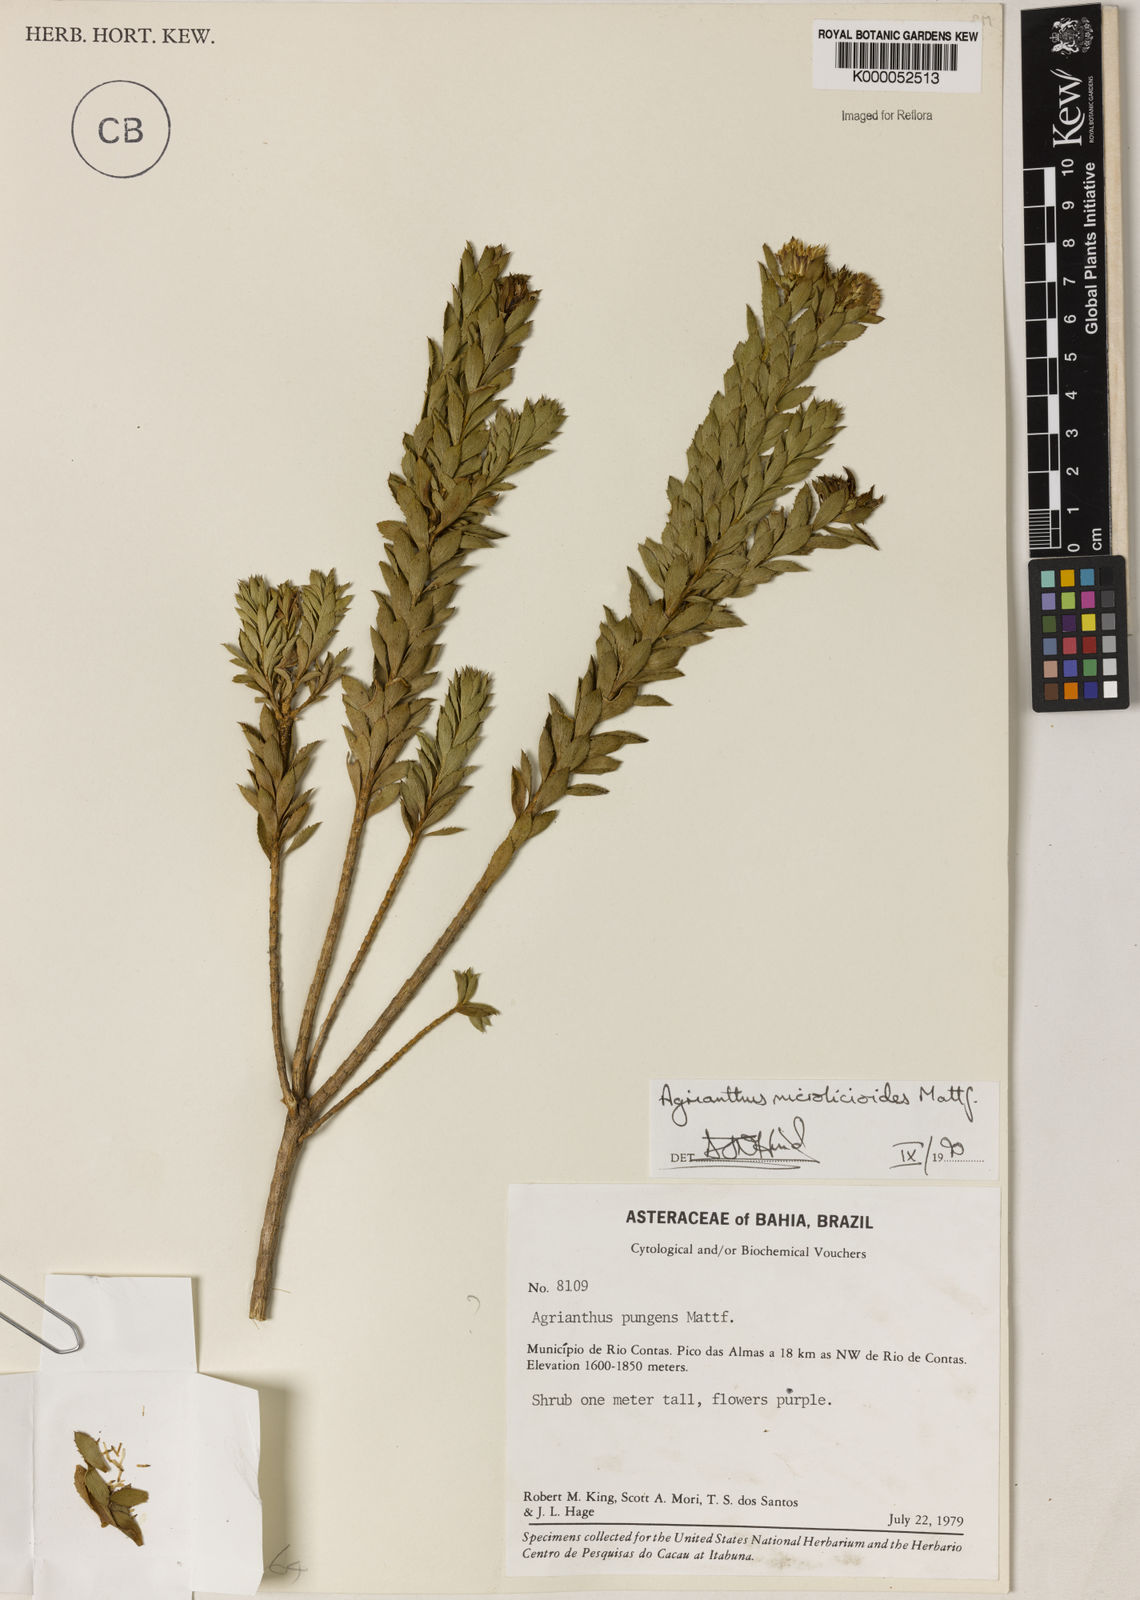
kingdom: Plantae
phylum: Tracheophyta
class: Magnoliopsida
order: Asterales
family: Asteraceae
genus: Agrianthus
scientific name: Agrianthus microlicioides
